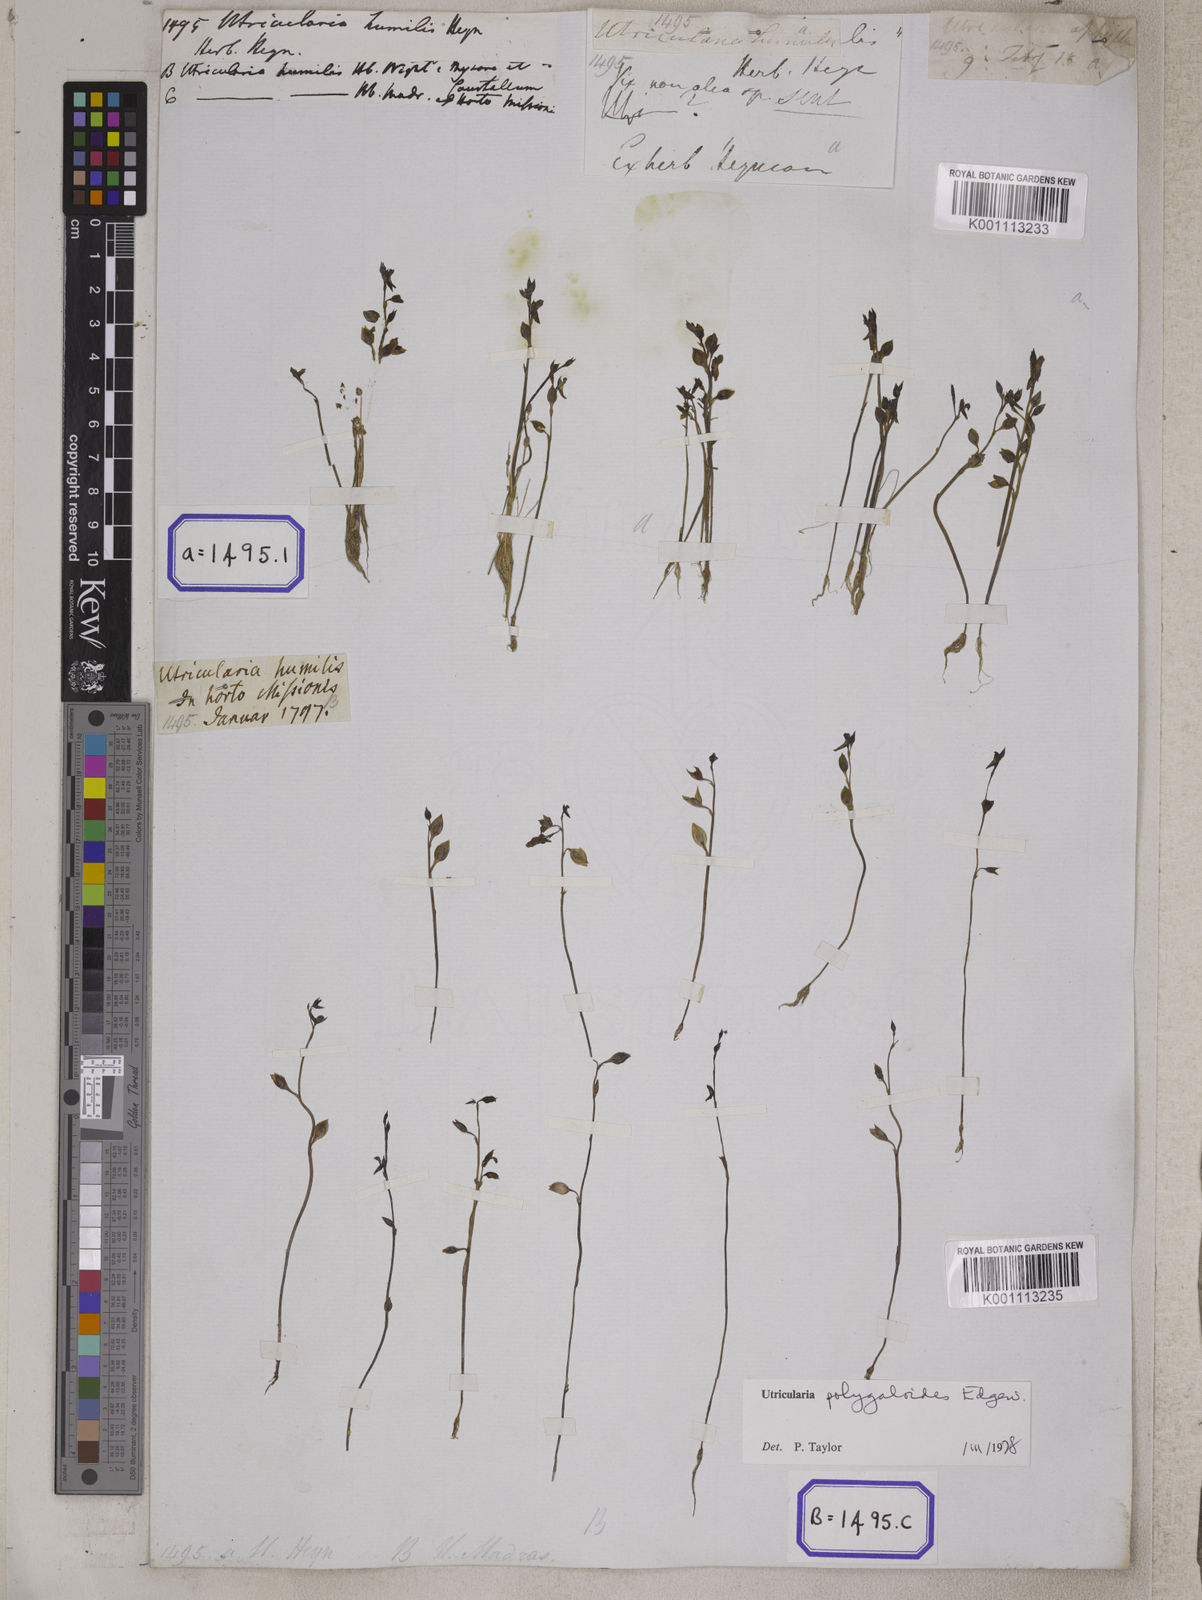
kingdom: Plantae
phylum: Tracheophyta
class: Magnoliopsida
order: Lamiales
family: Lentibulariaceae
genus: Utricularia
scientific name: Utricularia
